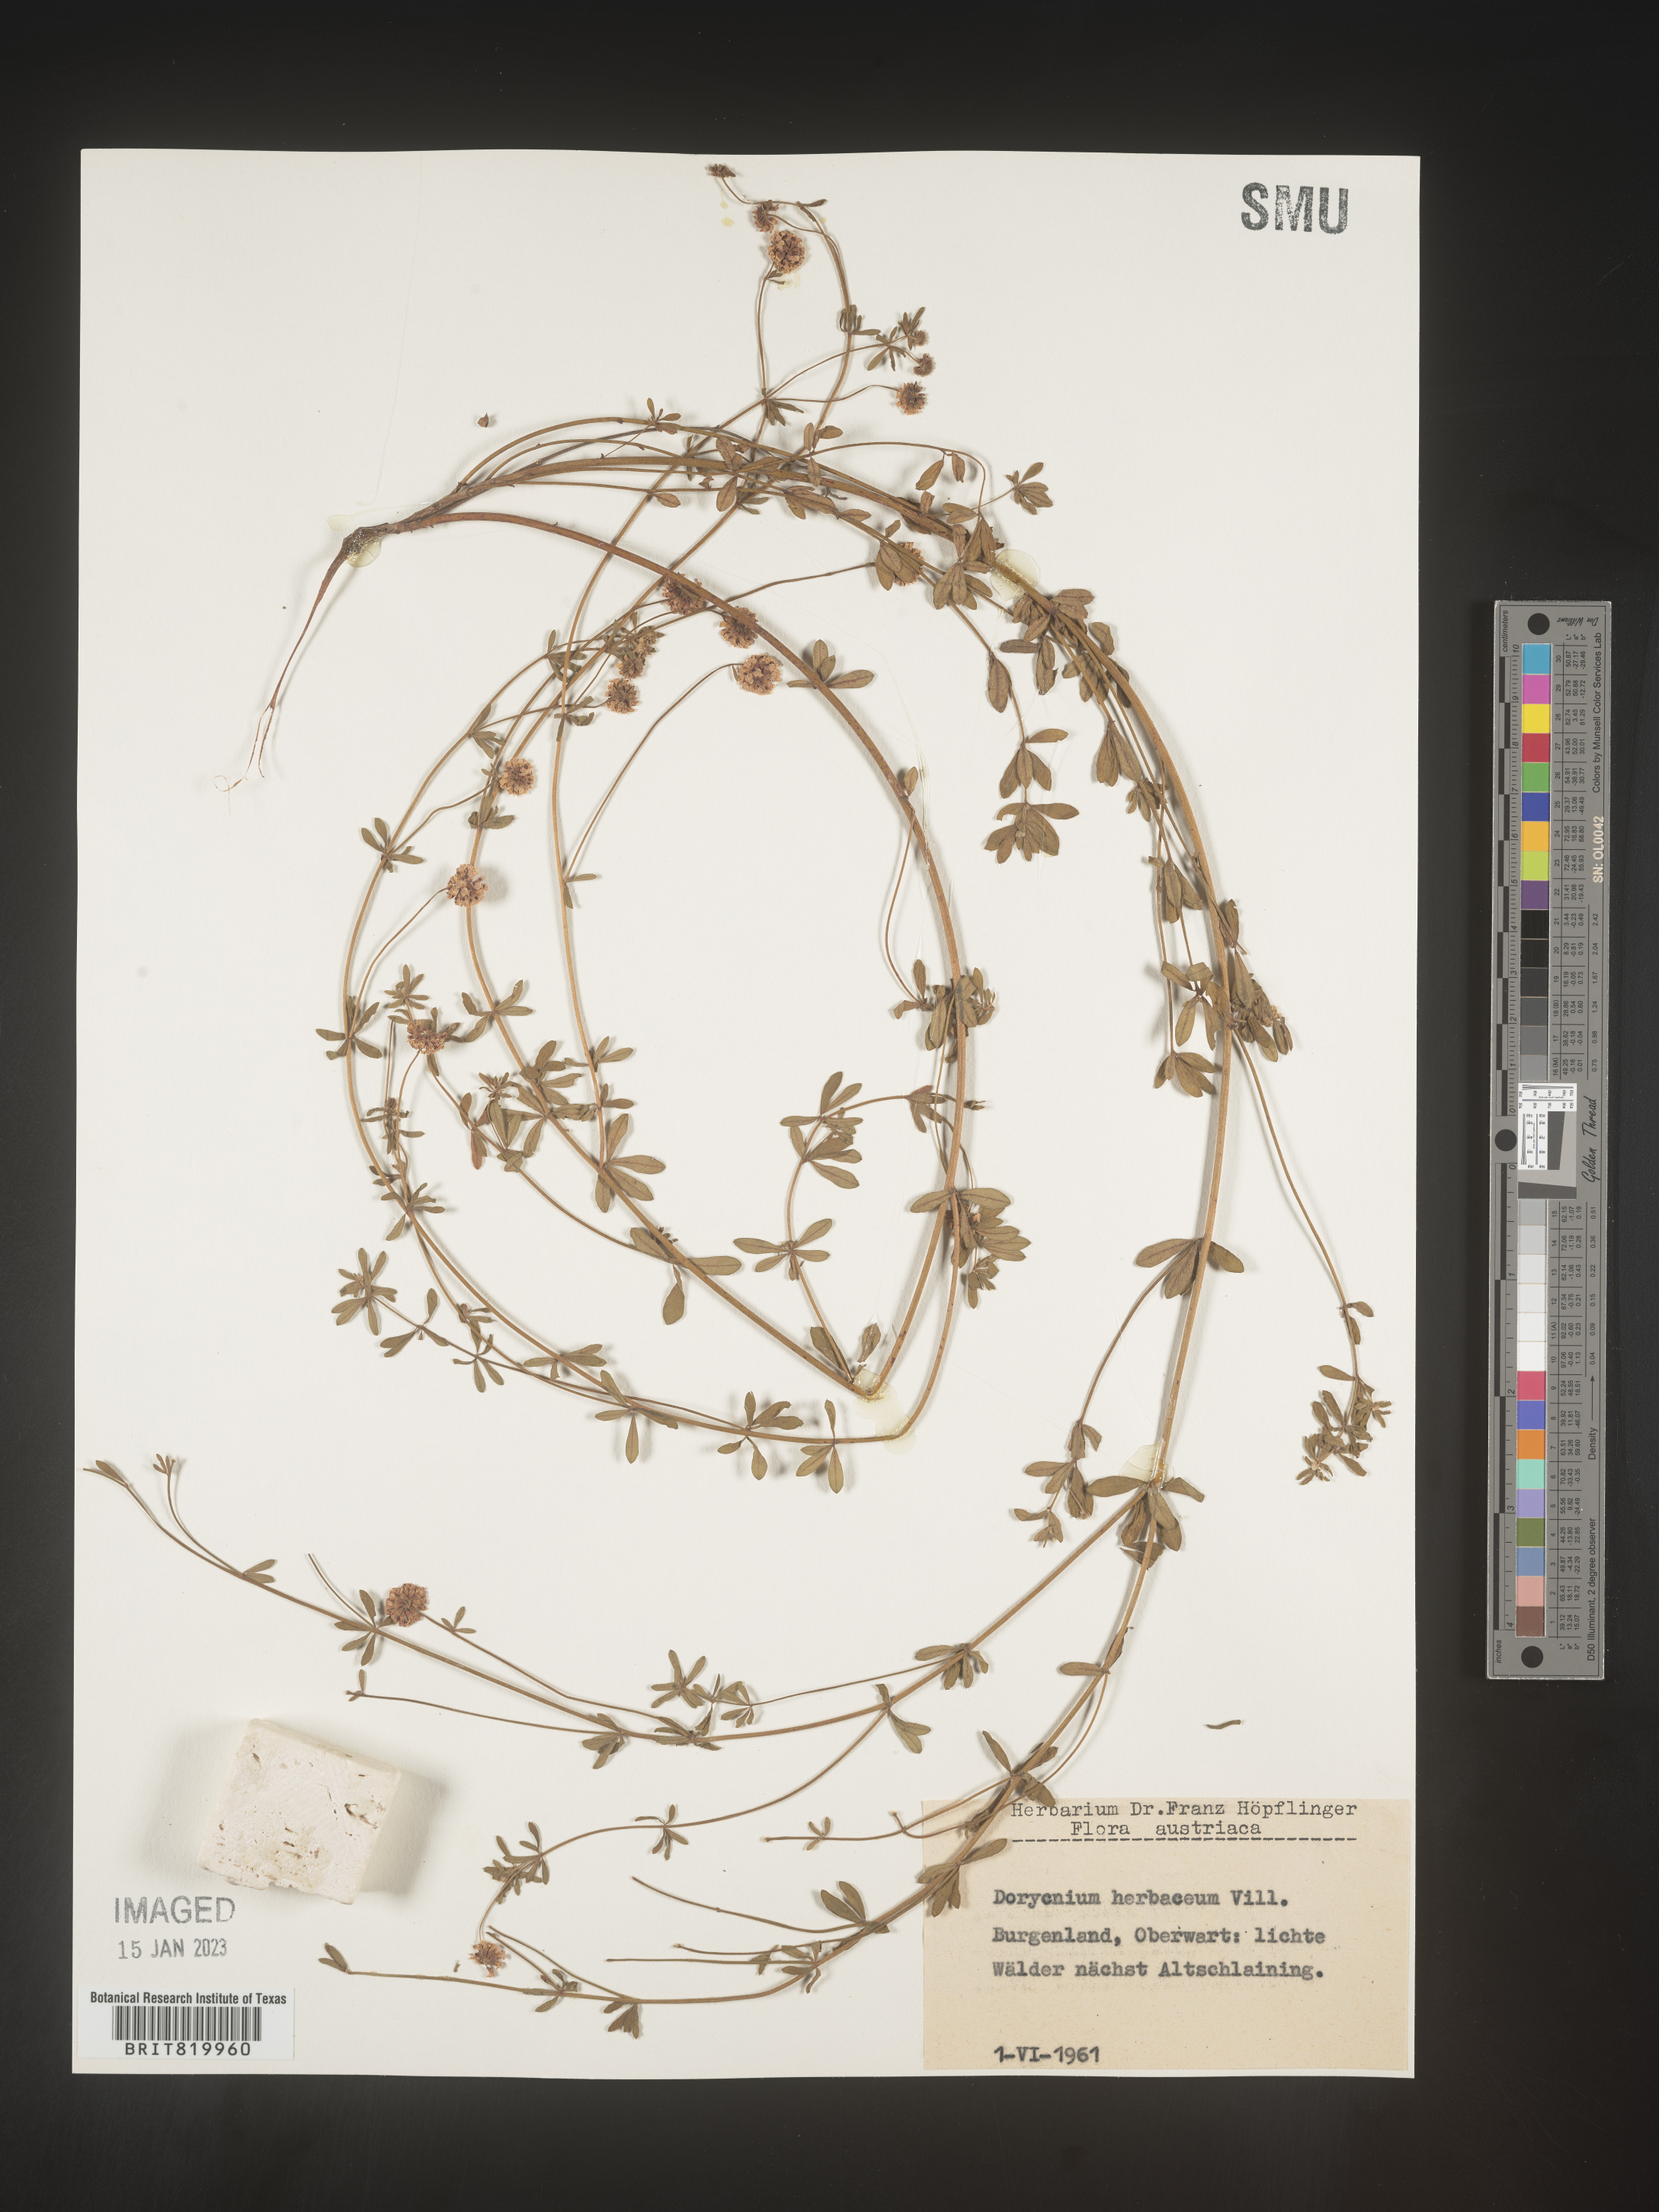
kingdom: Plantae
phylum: Tracheophyta
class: Magnoliopsida
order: Fabales
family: Fabaceae
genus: Lotus
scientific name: Lotus
